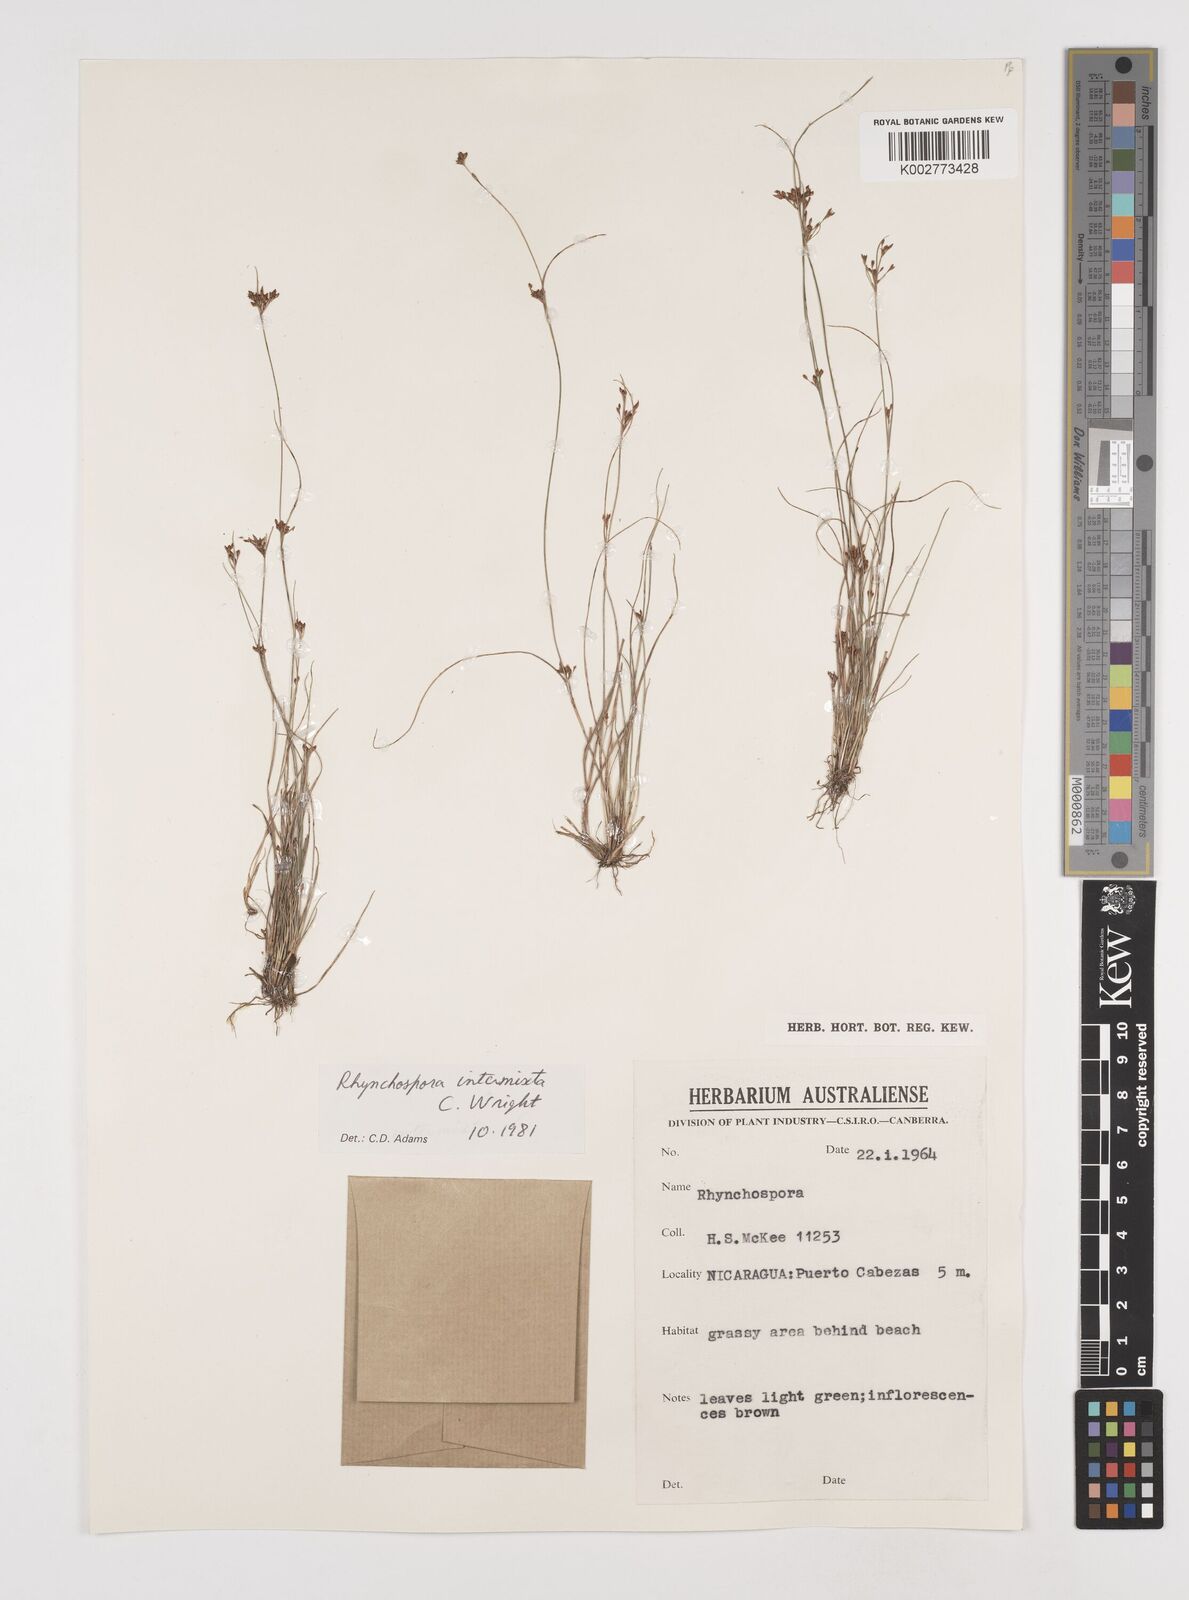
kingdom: Plantae
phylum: Tracheophyta
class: Liliopsida
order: Poales
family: Cyperaceae
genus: Rhynchospora
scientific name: Rhynchospora intermixta
